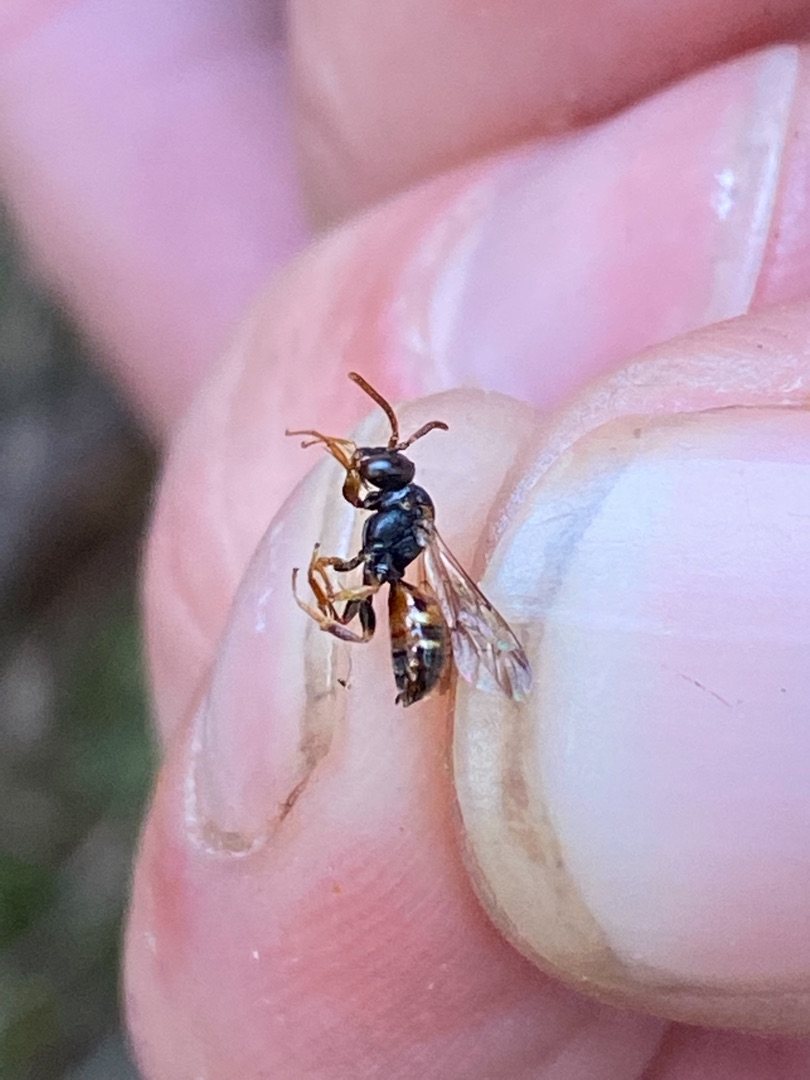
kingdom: Animalia
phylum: Arthropoda
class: Insecta
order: Hymenoptera
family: Apidae
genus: Nomada
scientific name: Nomada roberjeotiana
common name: Høsthvepsebi
